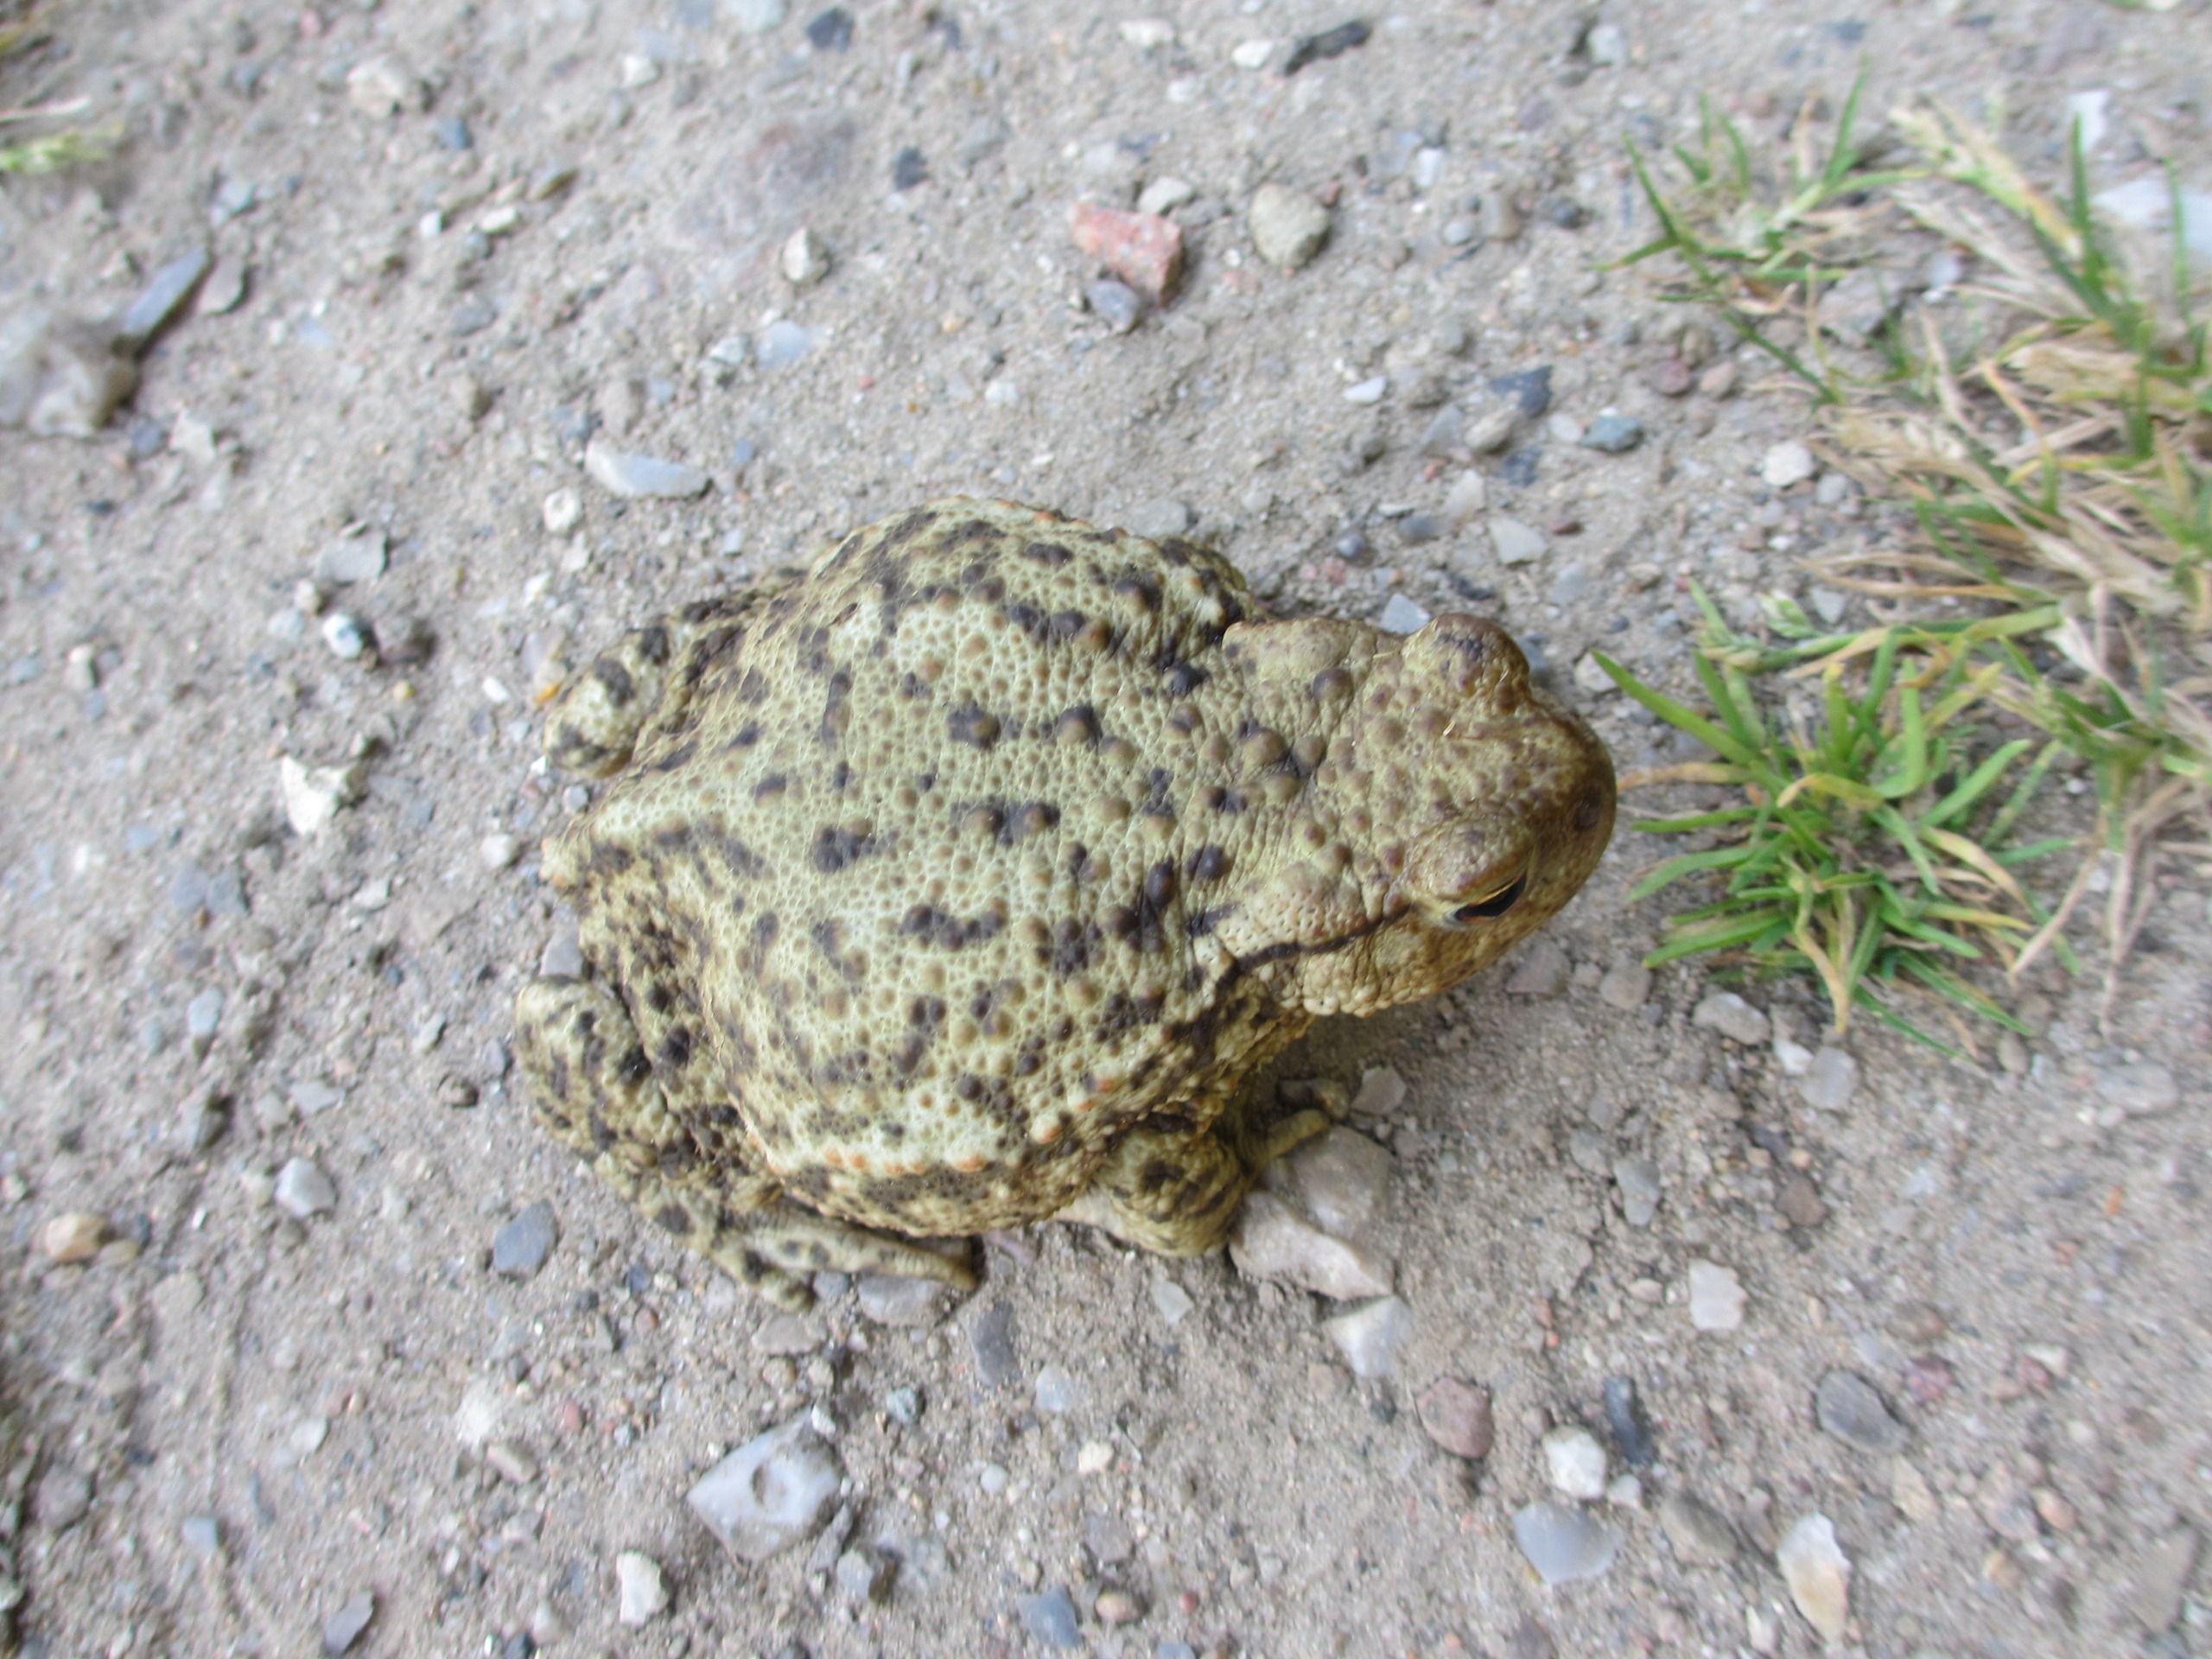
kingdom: Animalia
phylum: Chordata
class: Amphibia
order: Anura
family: Bufonidae
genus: Bufo
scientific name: Bufo bufo
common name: Skrubtudse
